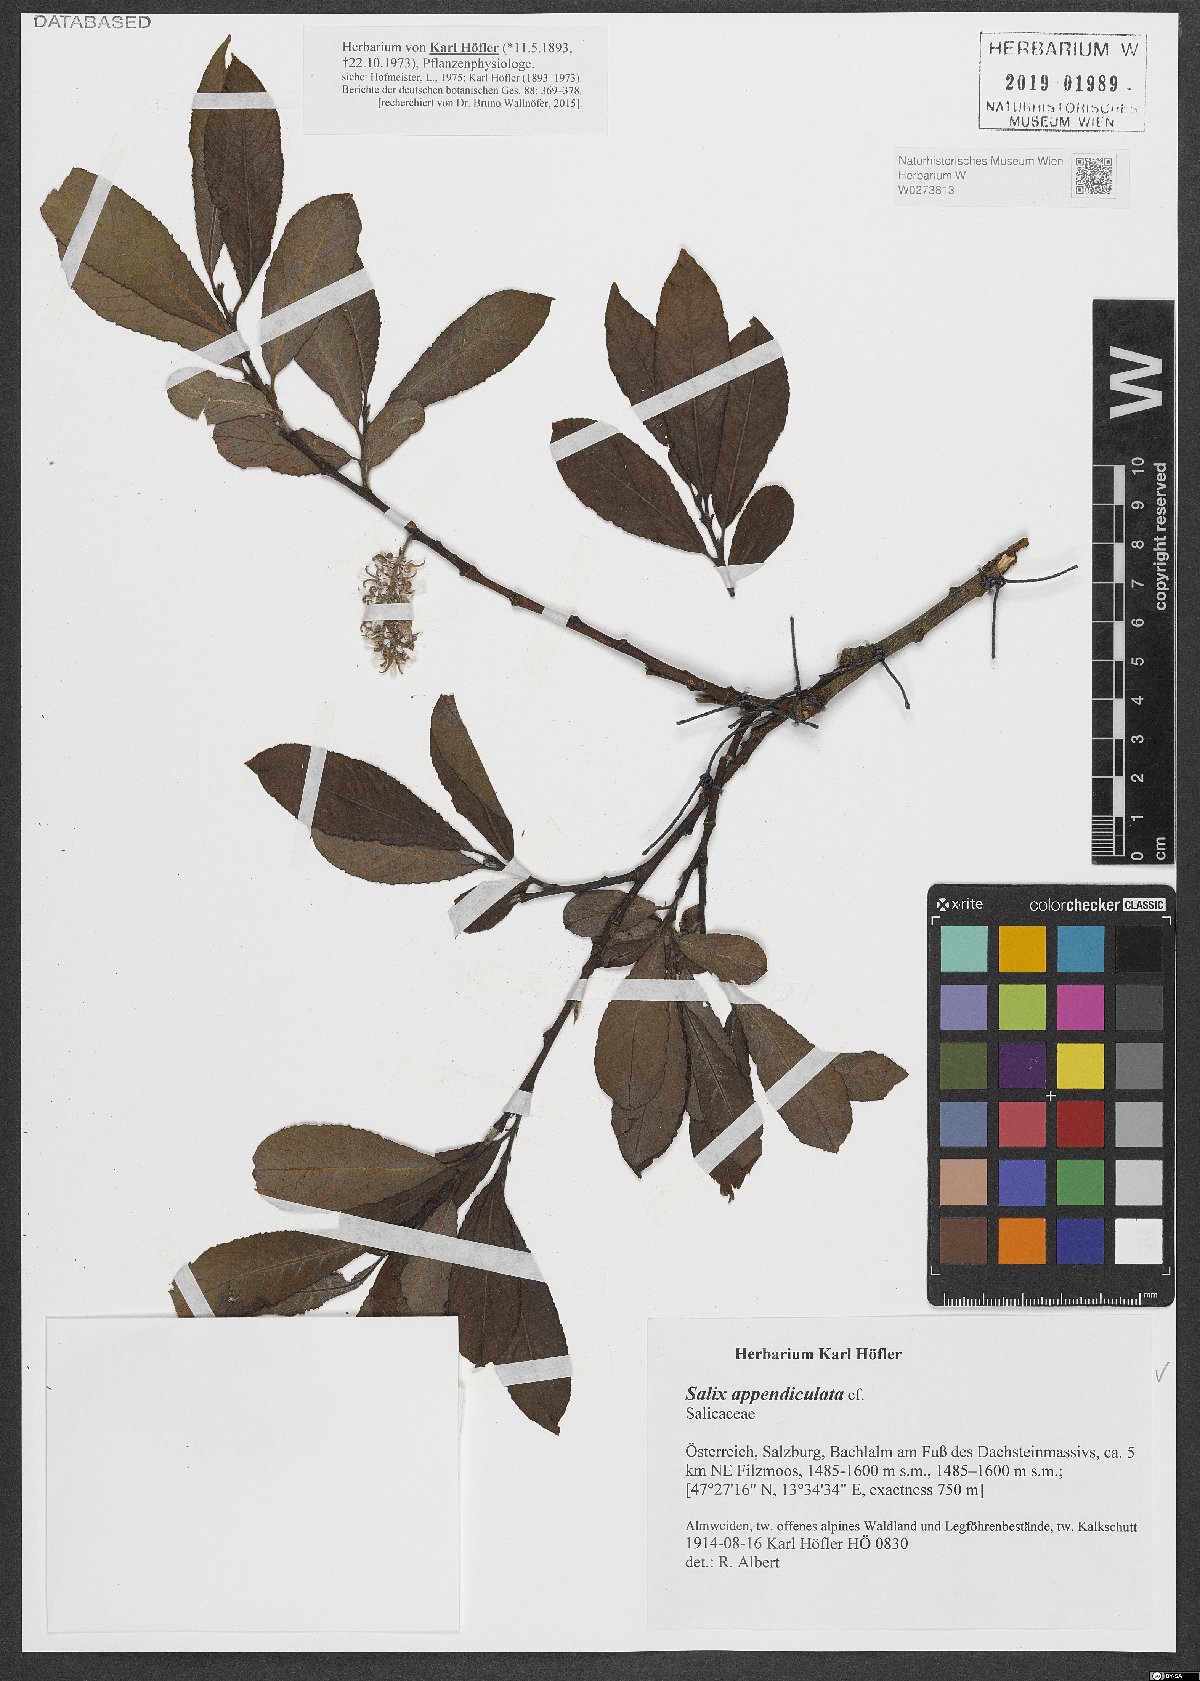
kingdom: Plantae
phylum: Tracheophyta
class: Magnoliopsida
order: Malpighiales
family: Salicaceae
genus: Salix
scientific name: Salix appendiculata
